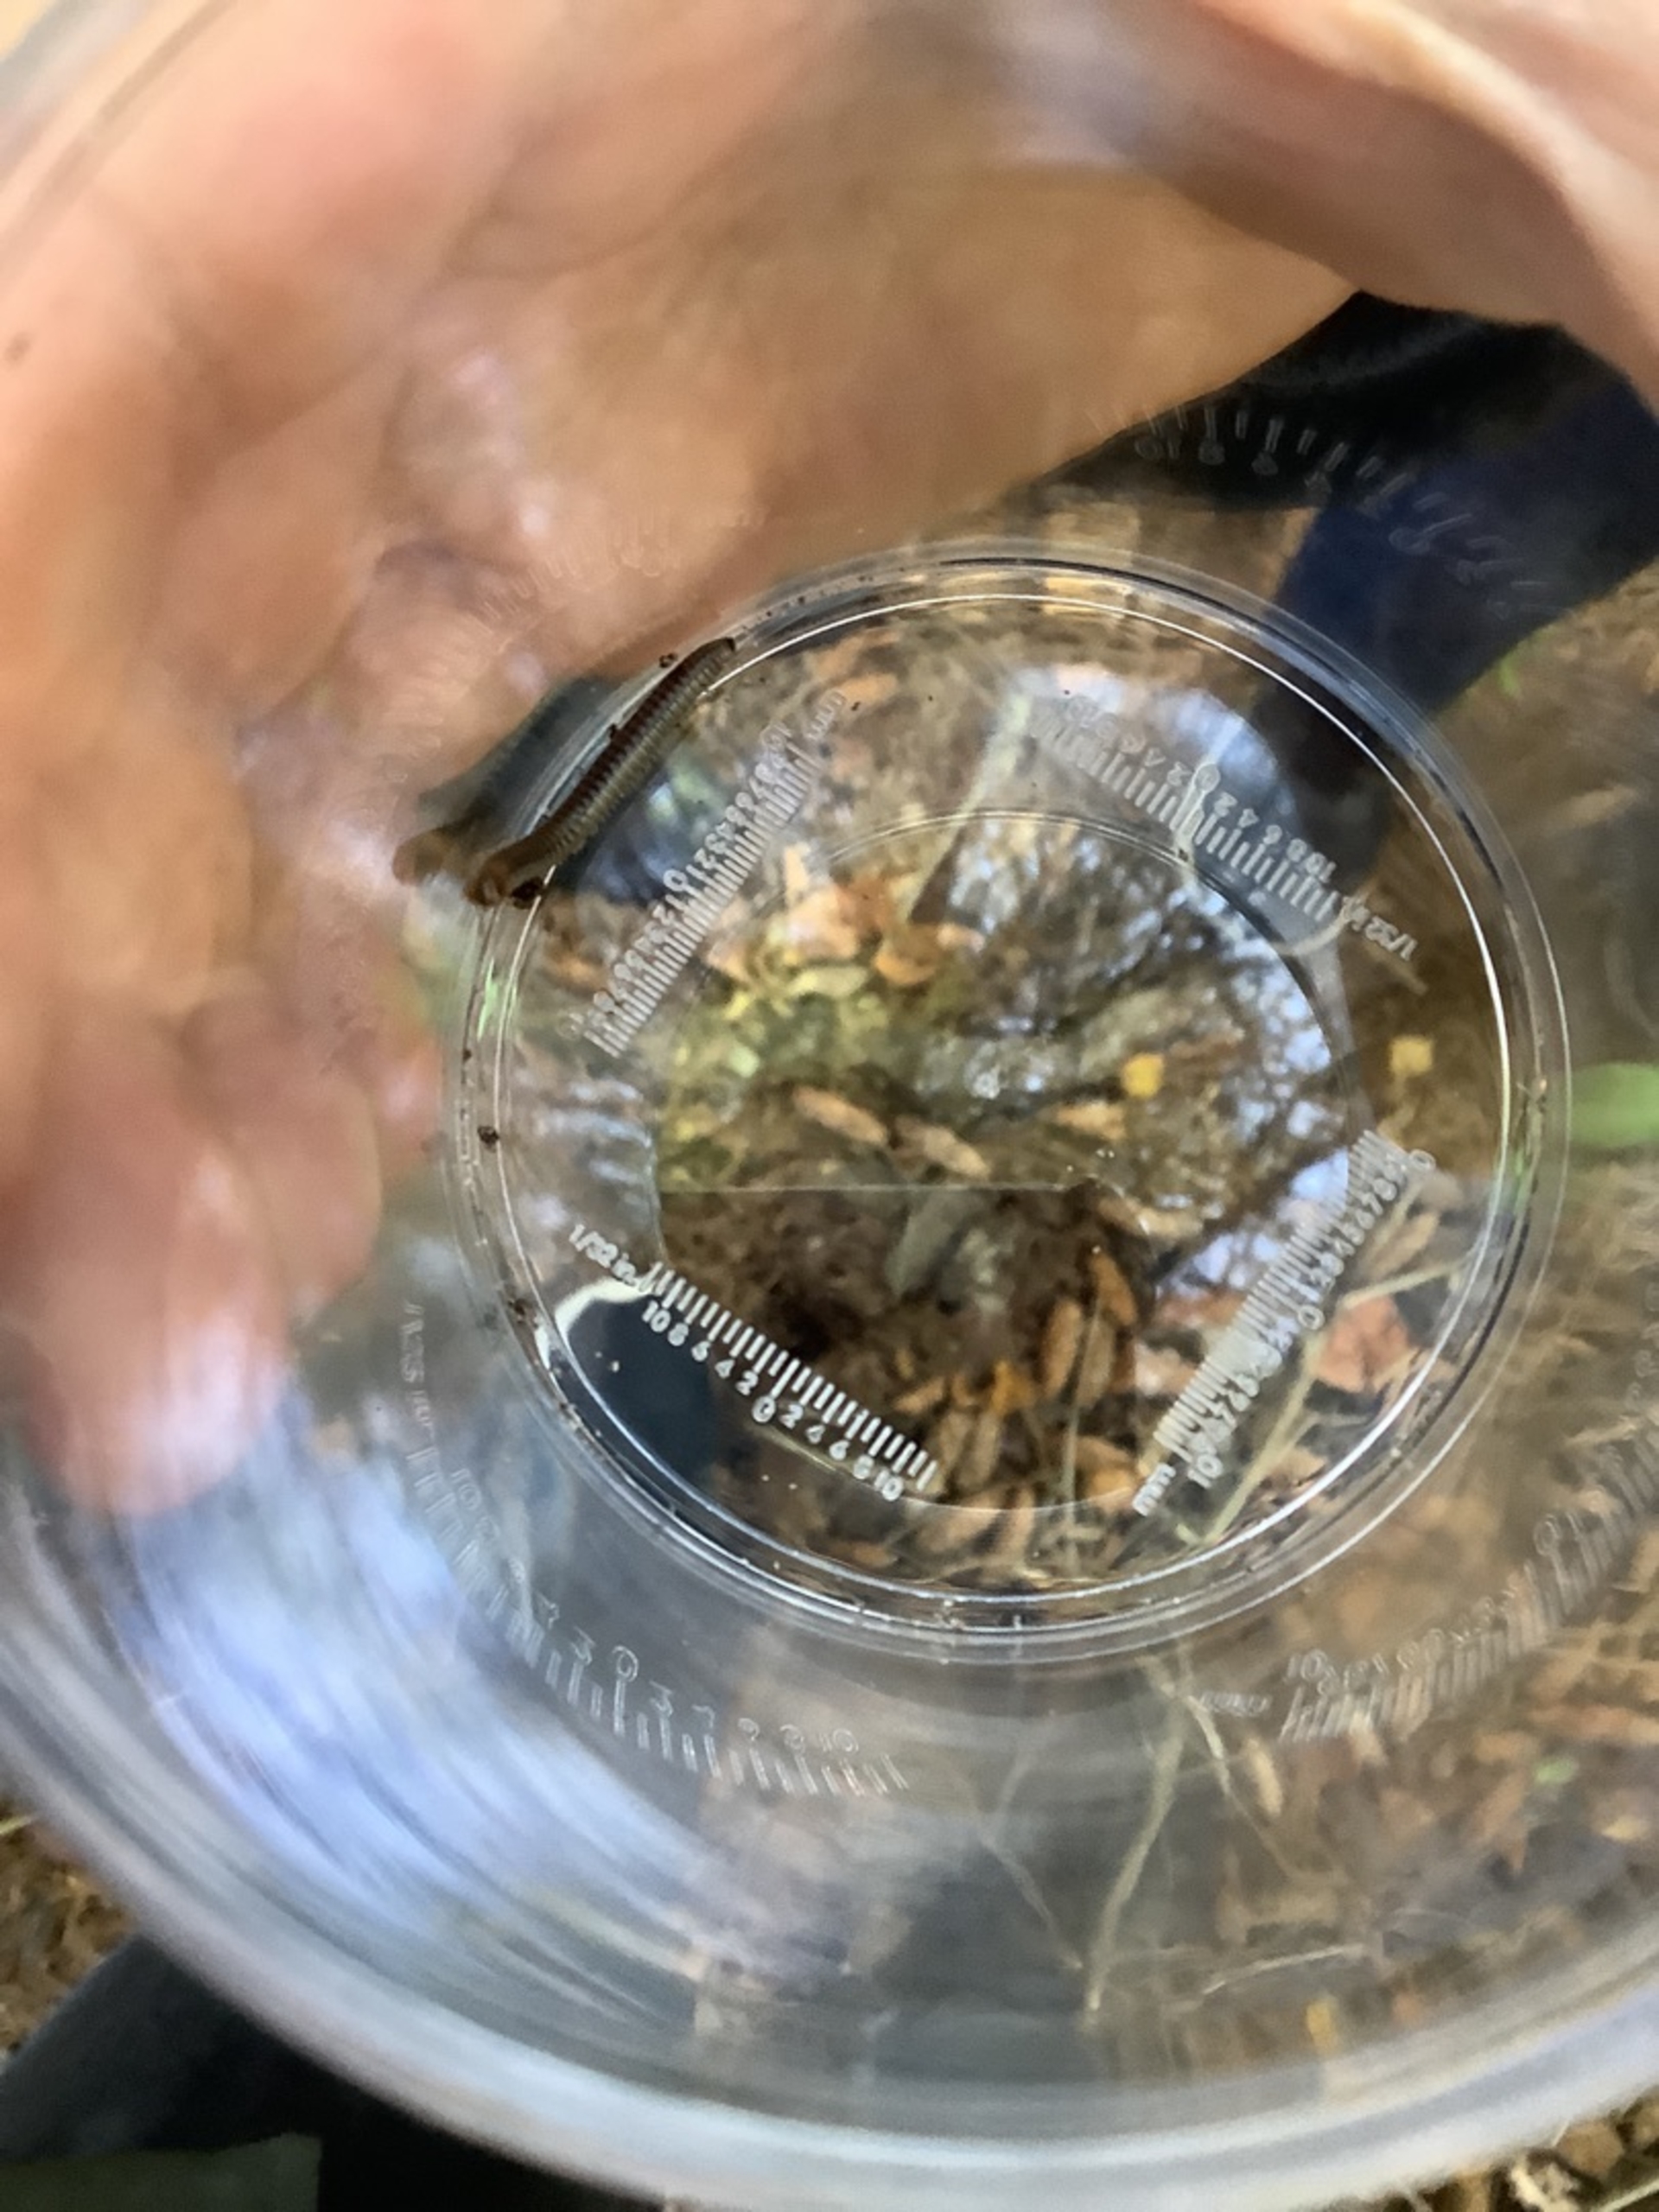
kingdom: Animalia
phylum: Arthropoda
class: Diplopoda
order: Julida
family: Julidae
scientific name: Julidae
